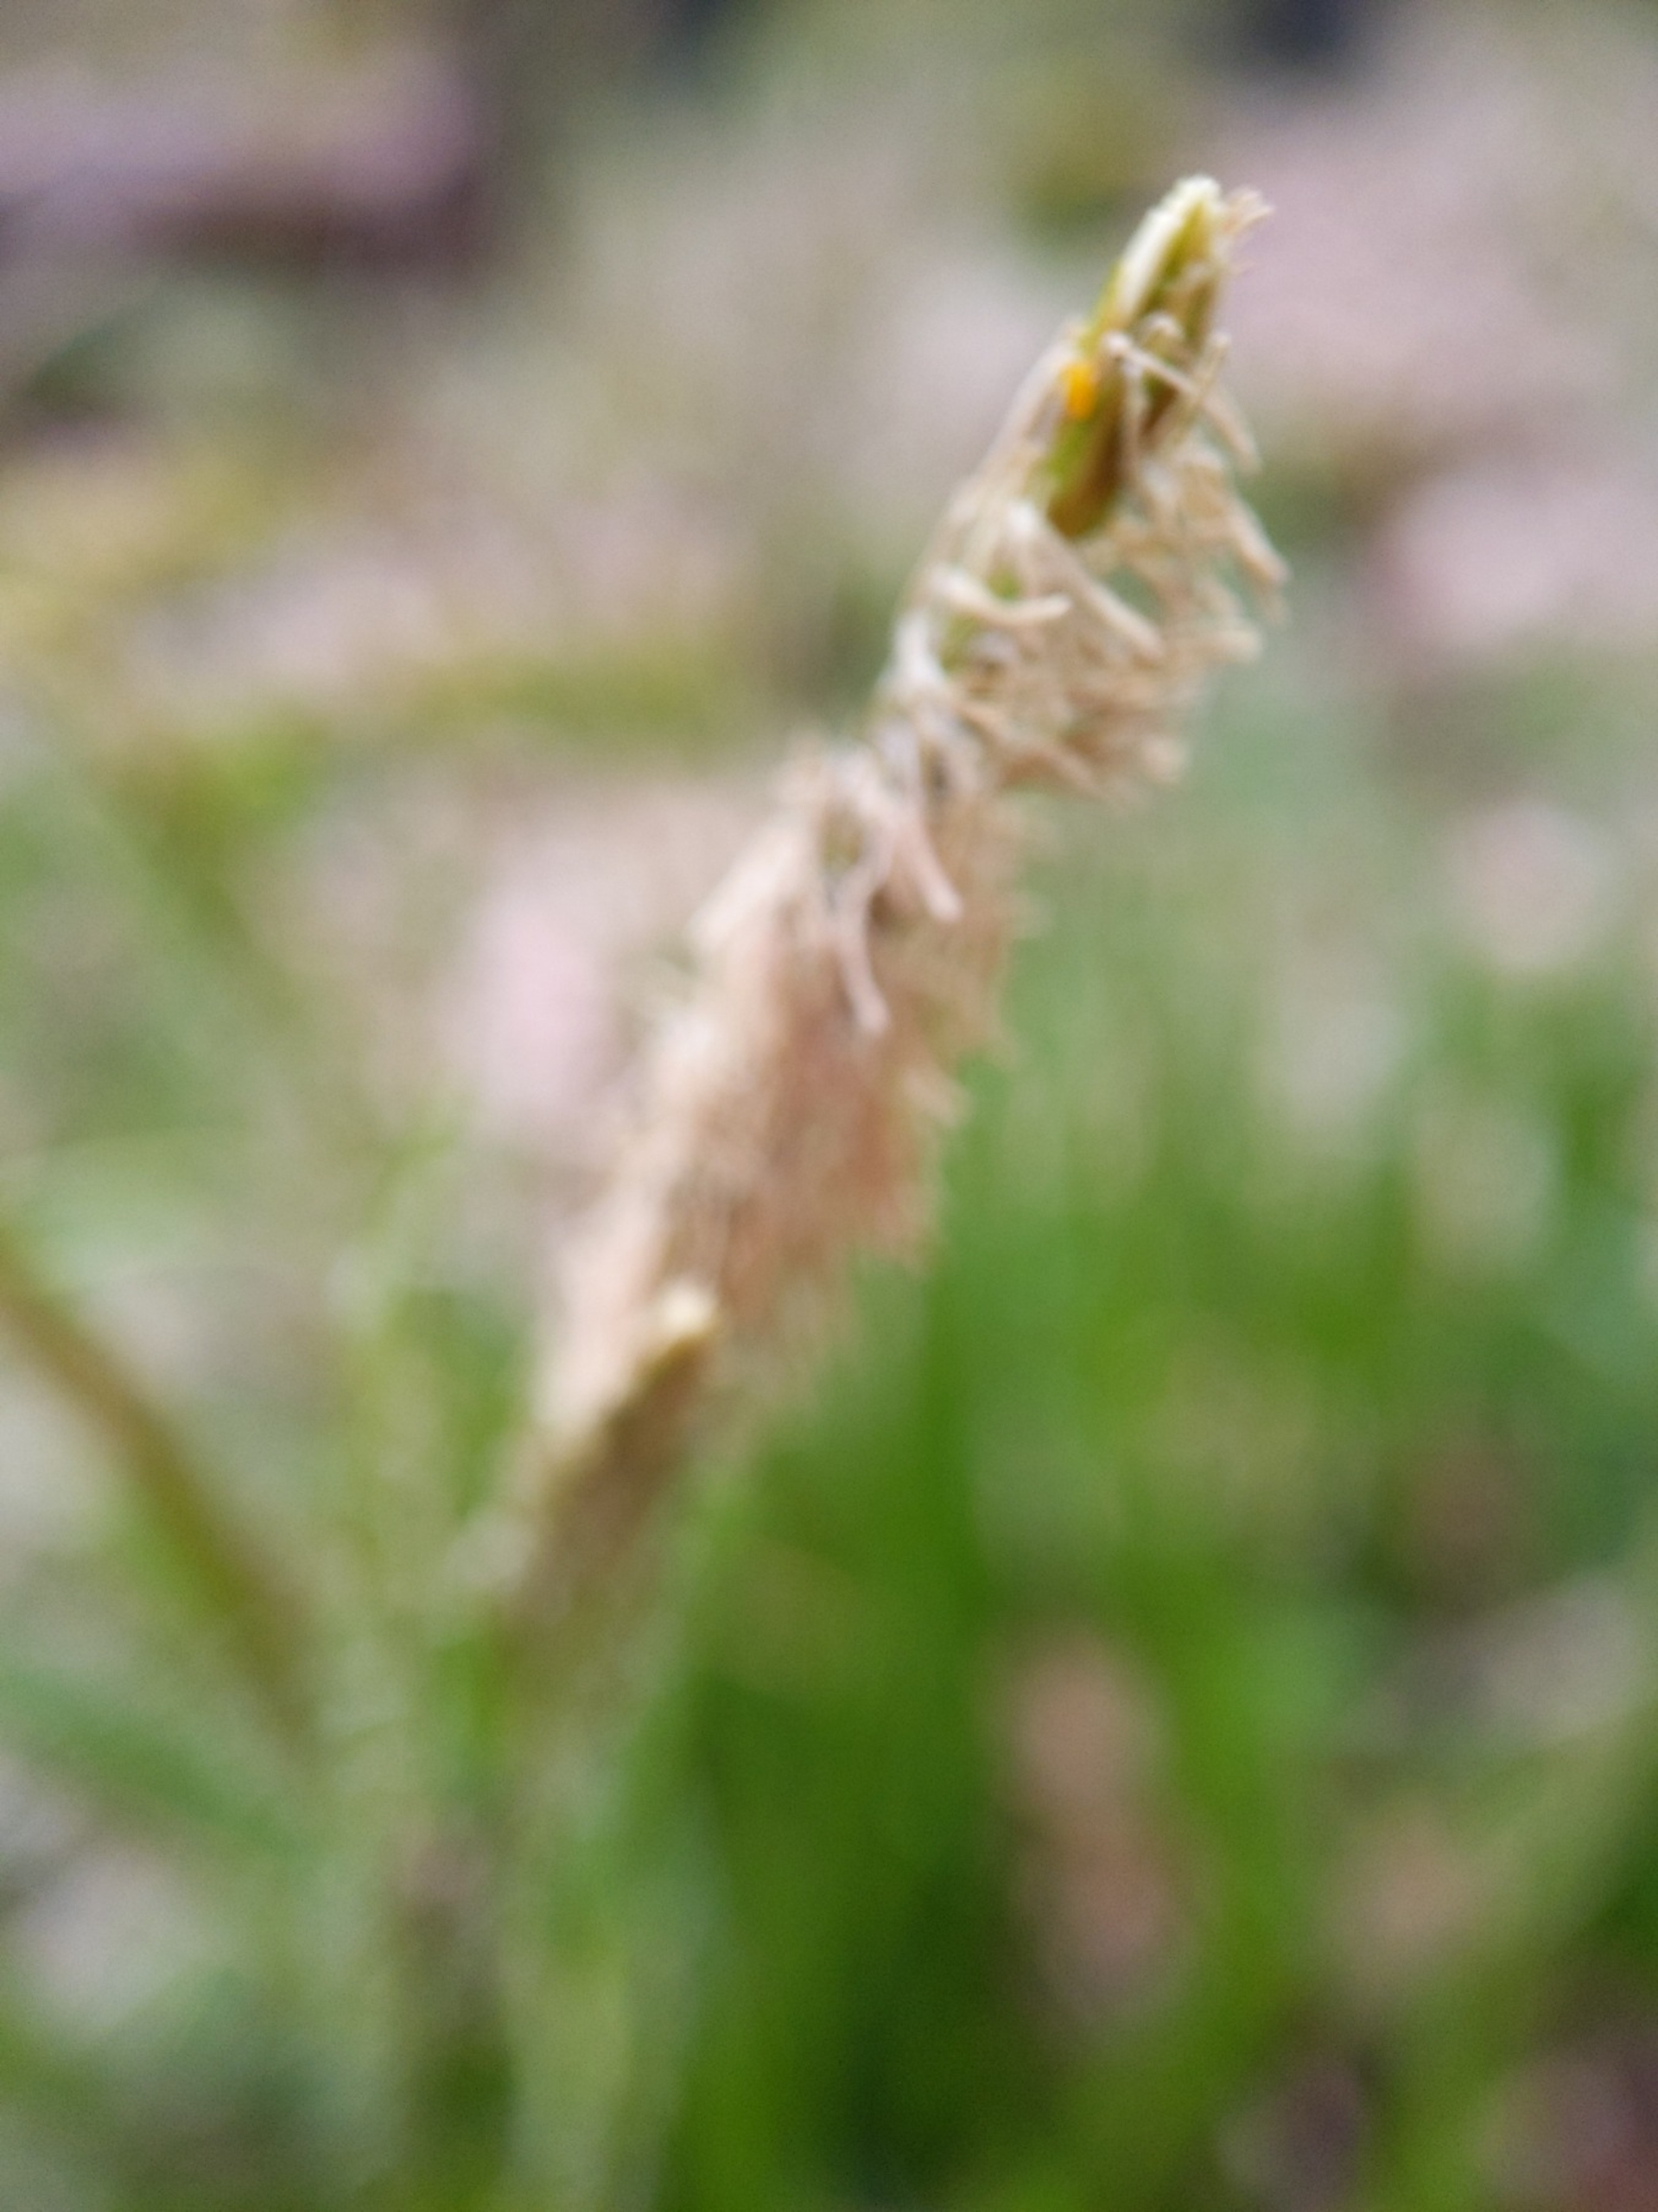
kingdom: Plantae
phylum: Tracheophyta
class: Liliopsida
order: Poales
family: Cyperaceae
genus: Carex
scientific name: Carex sylvatica
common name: Skov-star
